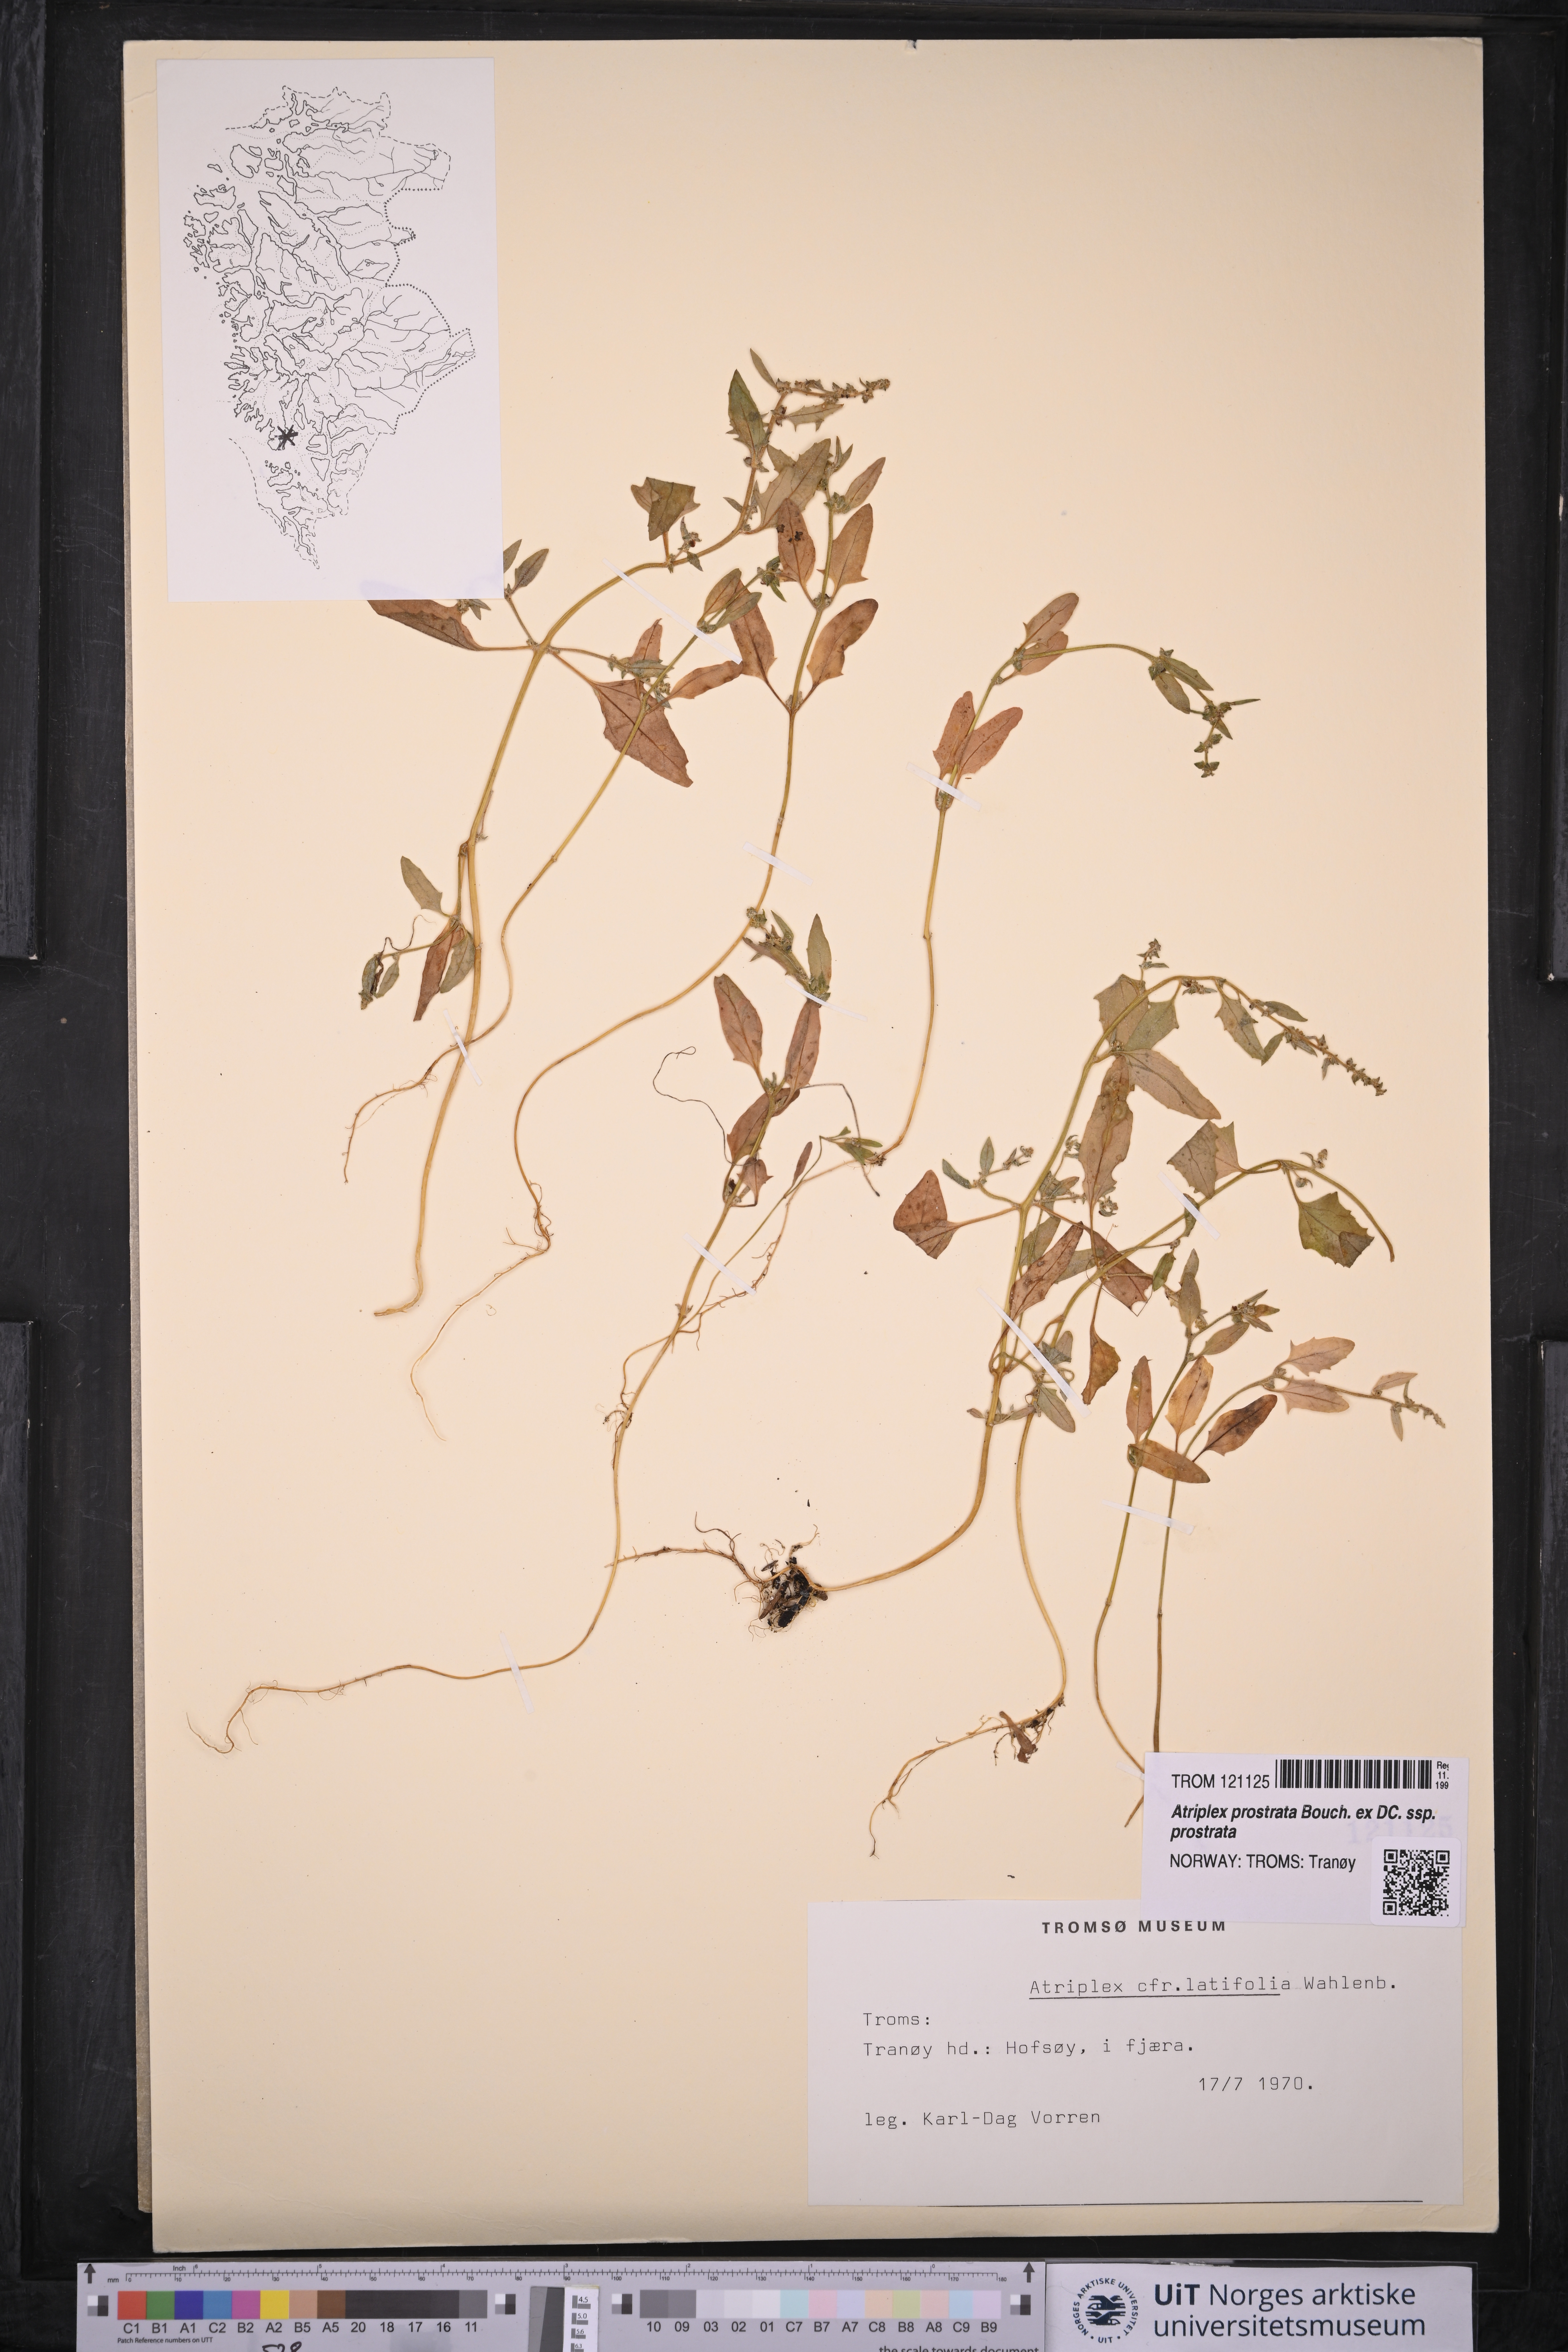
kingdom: Plantae
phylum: Tracheophyta
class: Magnoliopsida
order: Caryophyllales
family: Amaranthaceae
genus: Atriplex
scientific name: Atriplex prostrata
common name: Spear-leaved orache
